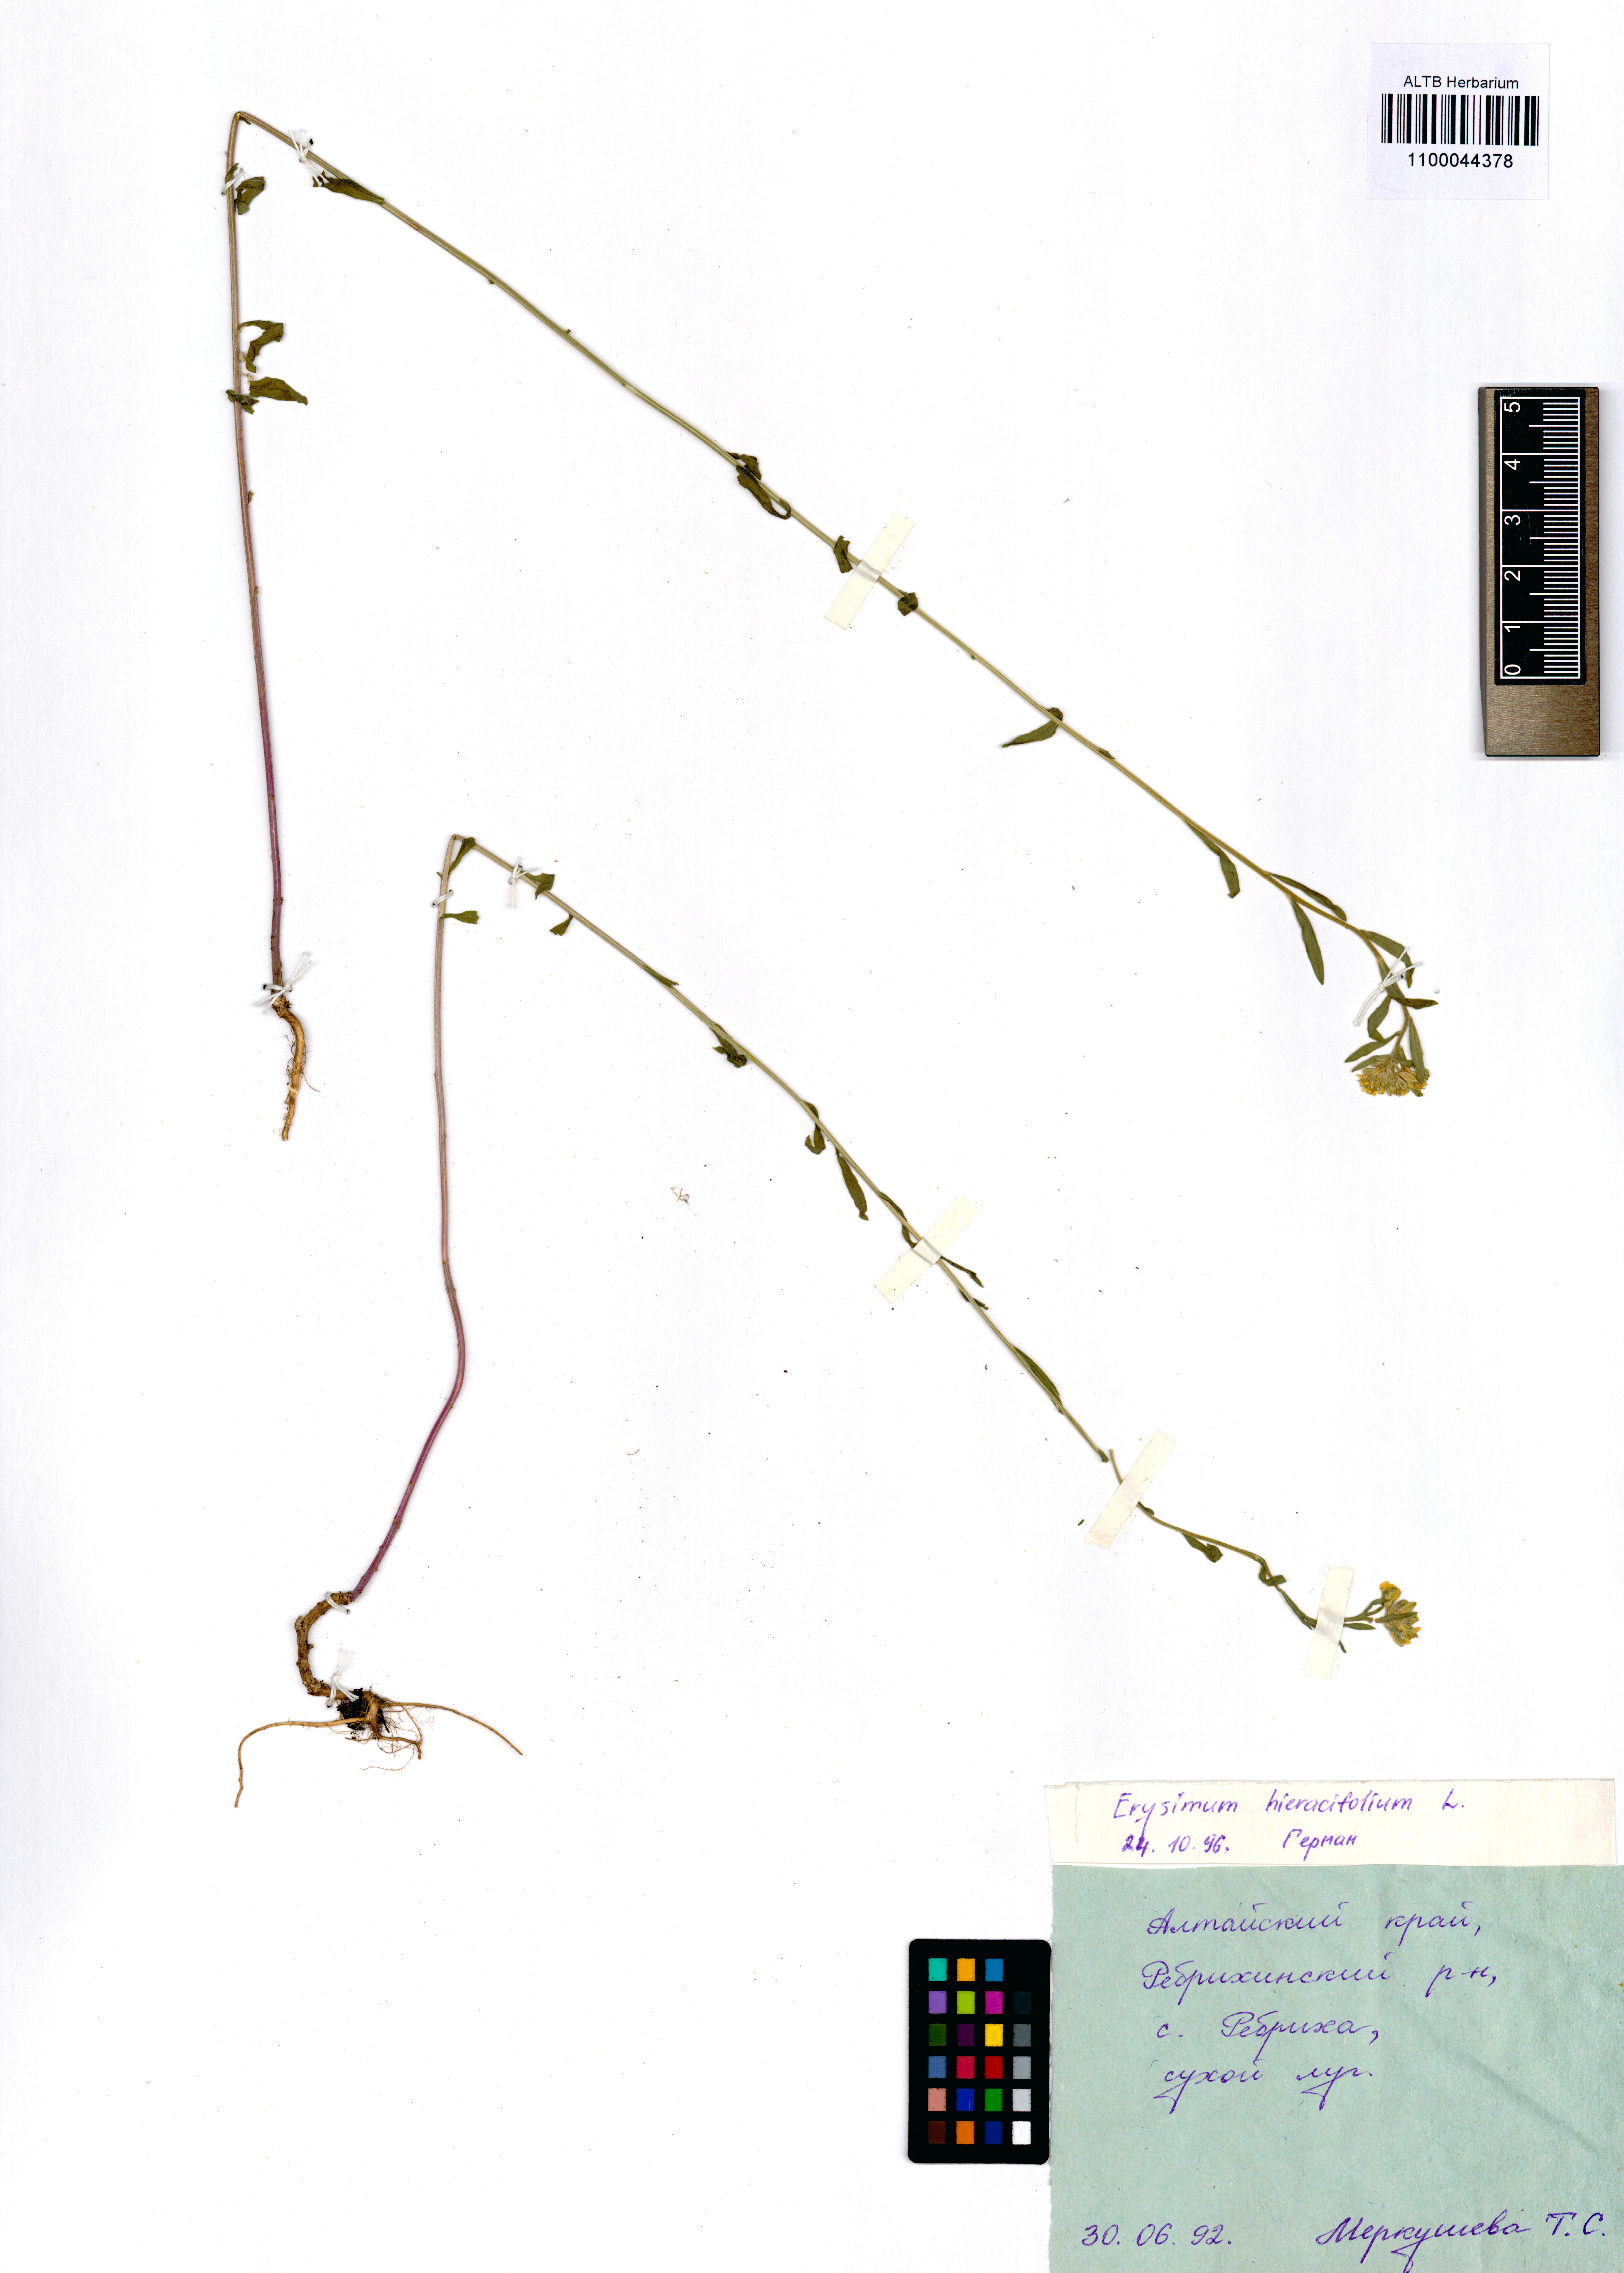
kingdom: Plantae
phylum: Tracheophyta
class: Magnoliopsida
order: Brassicales
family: Brassicaceae
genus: Erysimum
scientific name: Erysimum hieraciifolium
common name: European wallflower
